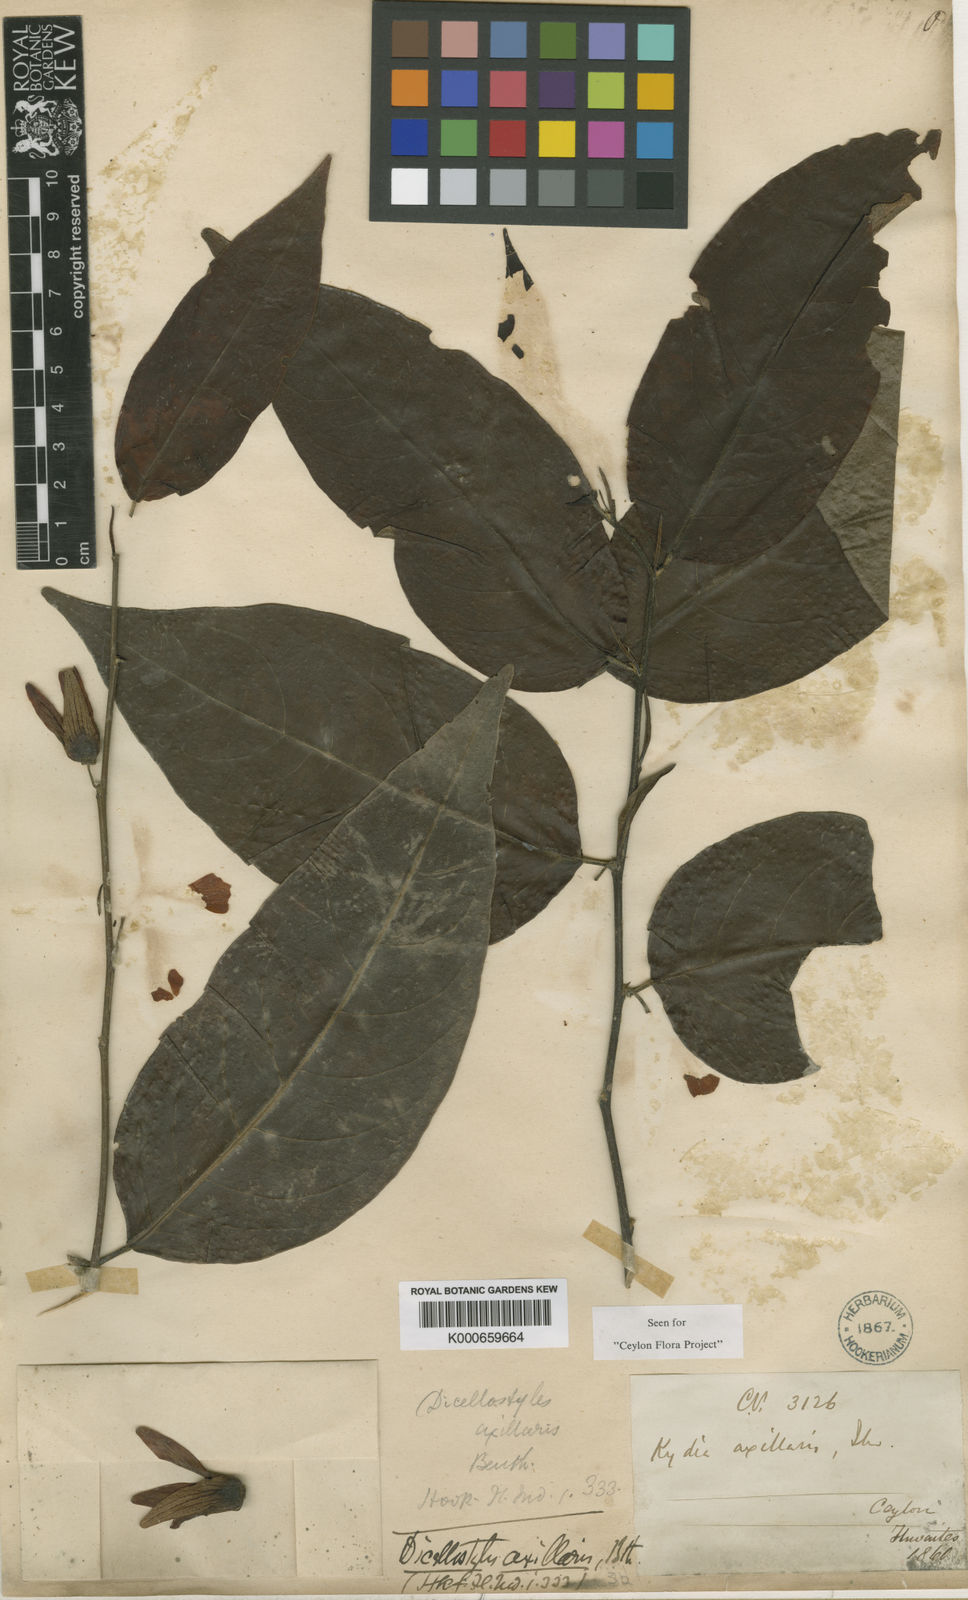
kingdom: Plantae
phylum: Tracheophyta
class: Magnoliopsida
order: Malvales
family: Malvaceae
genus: Dicellostyles
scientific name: Dicellostyles
